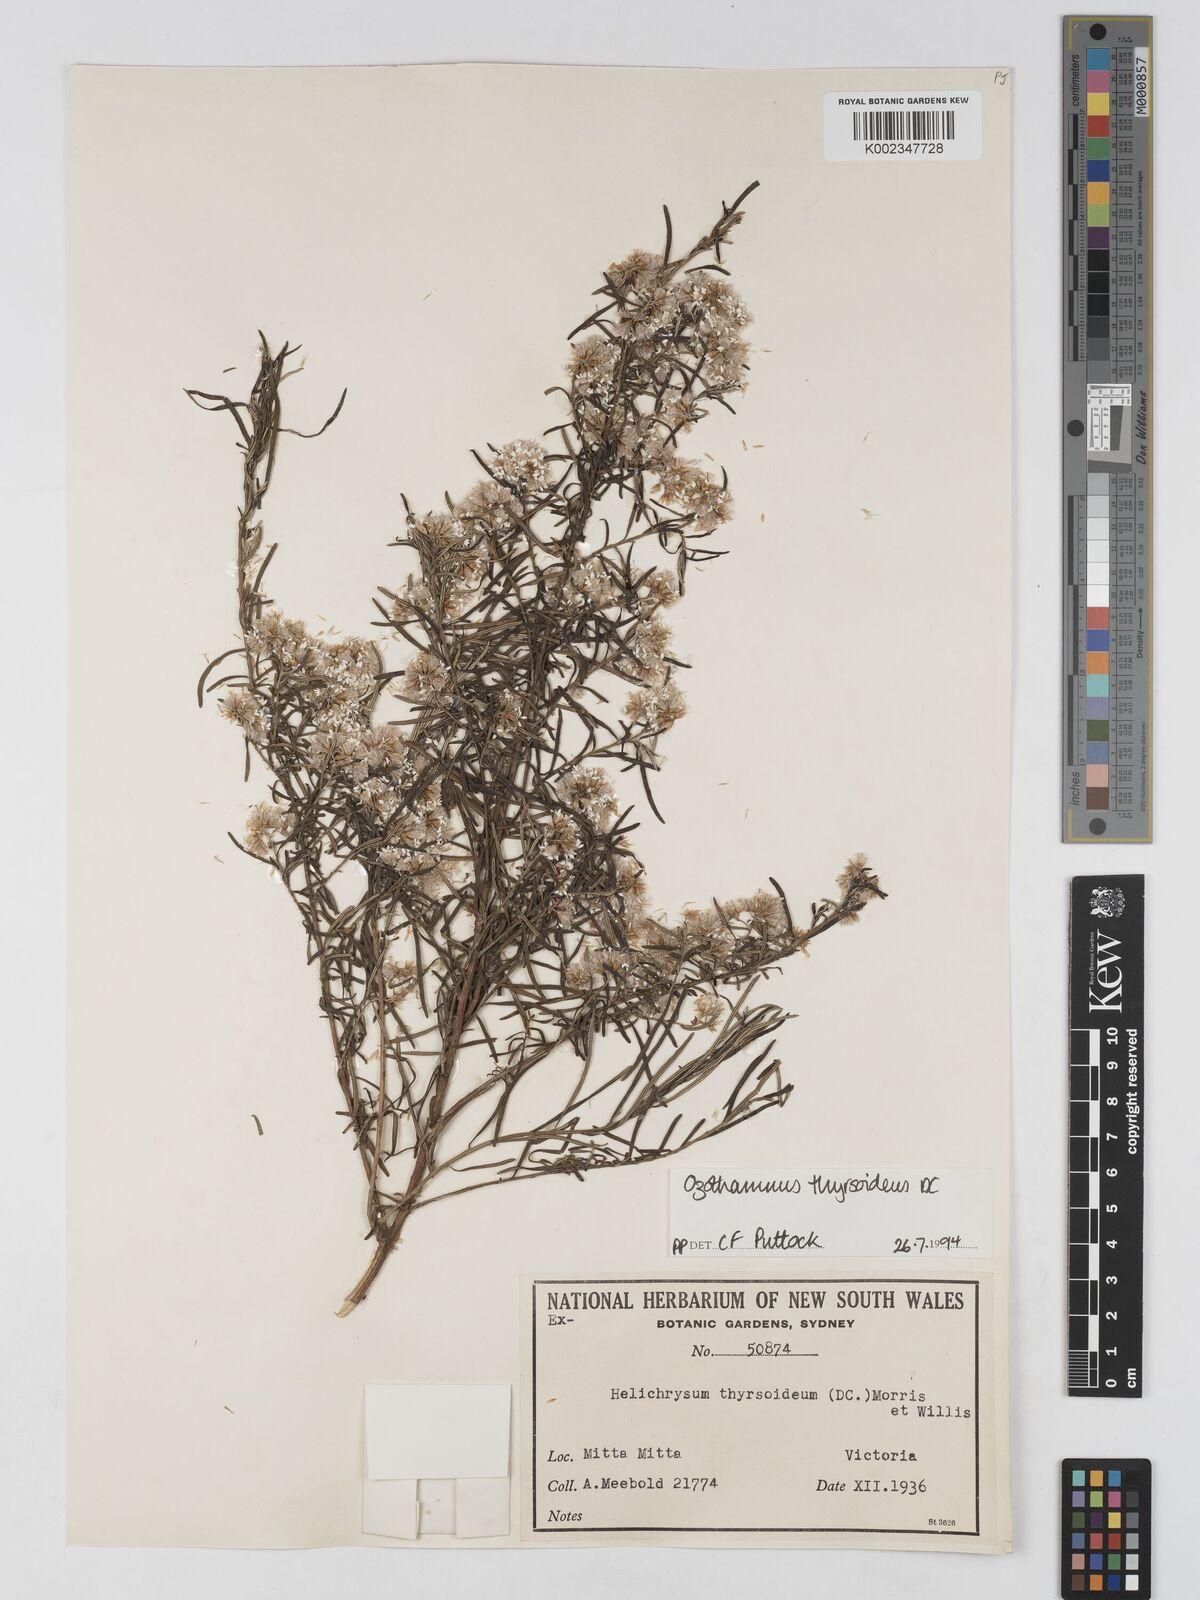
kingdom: Plantae
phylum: Tracheophyta
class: Magnoliopsida
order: Asterales
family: Asteraceae
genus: Ozothamnus
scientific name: Ozothamnus thyrsoideus
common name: Snow-in-summer
